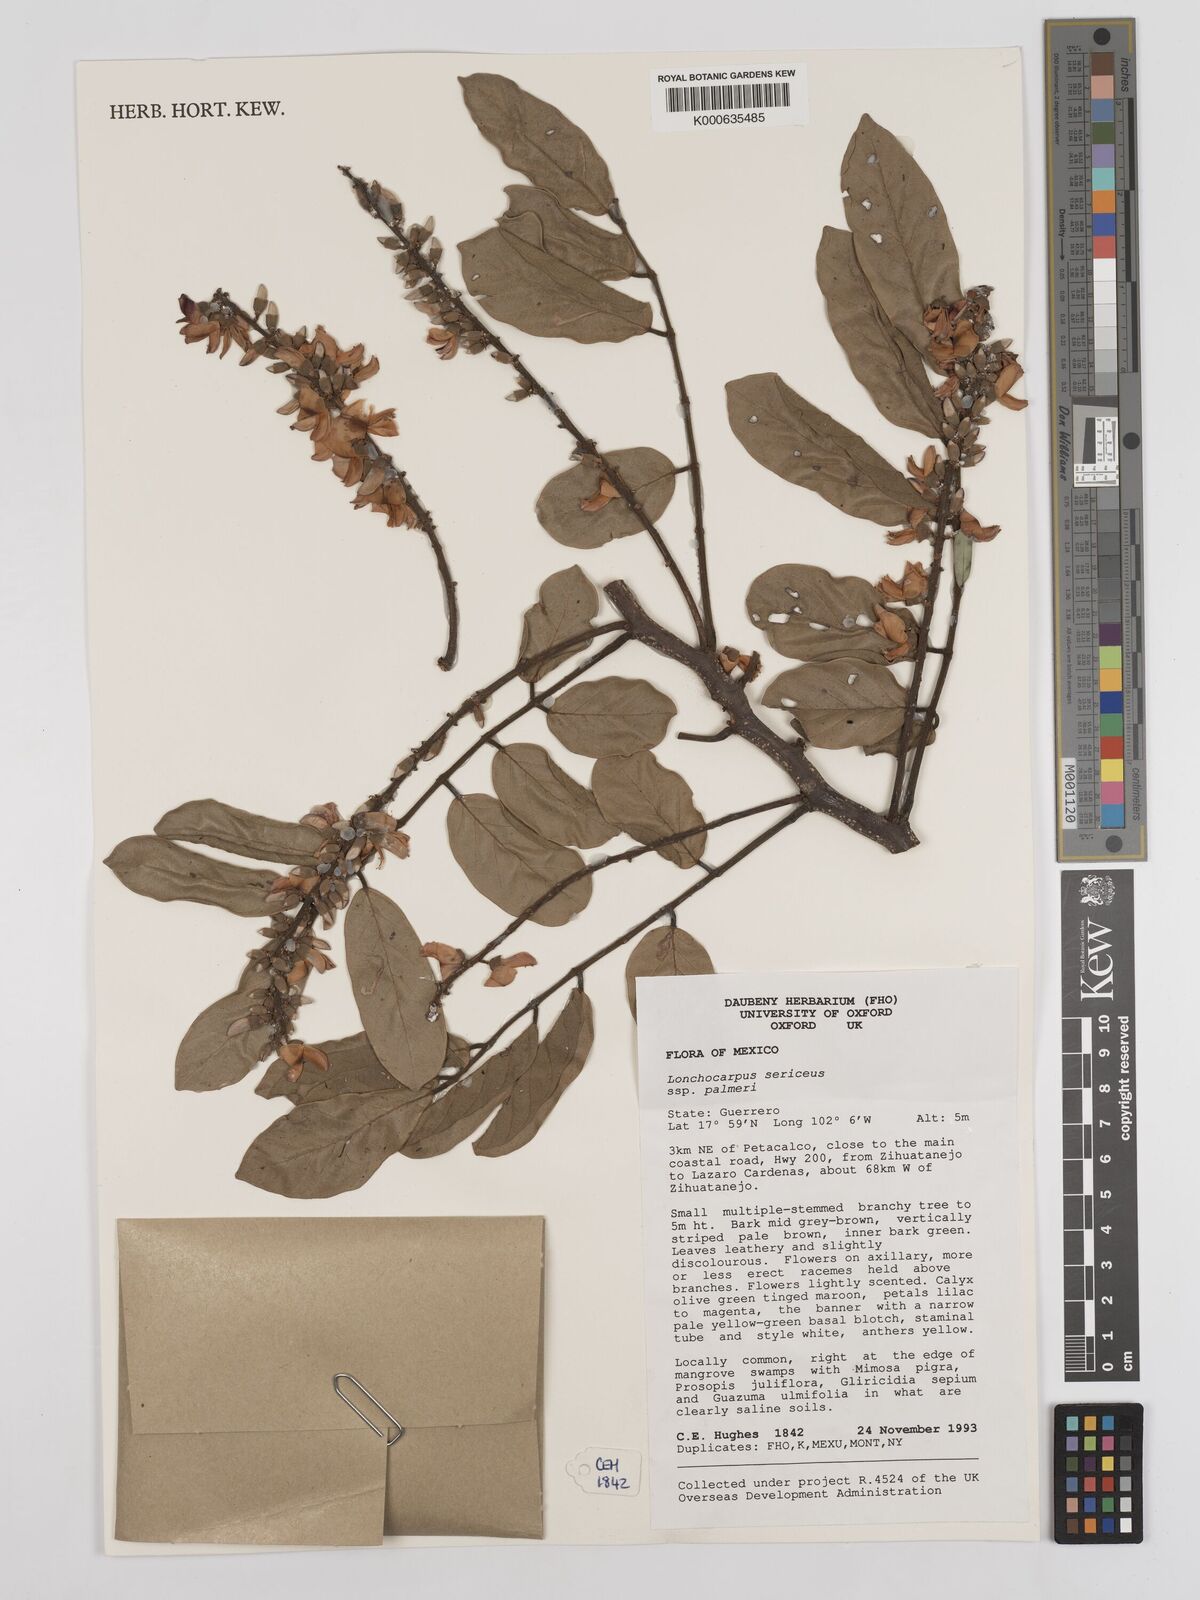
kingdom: Plantae
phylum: Tracheophyta
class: Magnoliopsida
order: Fabales
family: Fabaceae
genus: Lonchocarpus
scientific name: Lonchocarpus palmeri
